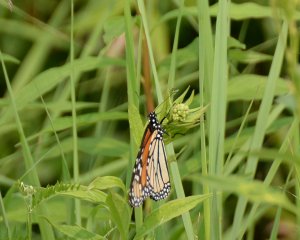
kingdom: Animalia
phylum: Arthropoda
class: Insecta
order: Lepidoptera
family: Nymphalidae
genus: Danaus
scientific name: Danaus plexippus
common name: Monarch
